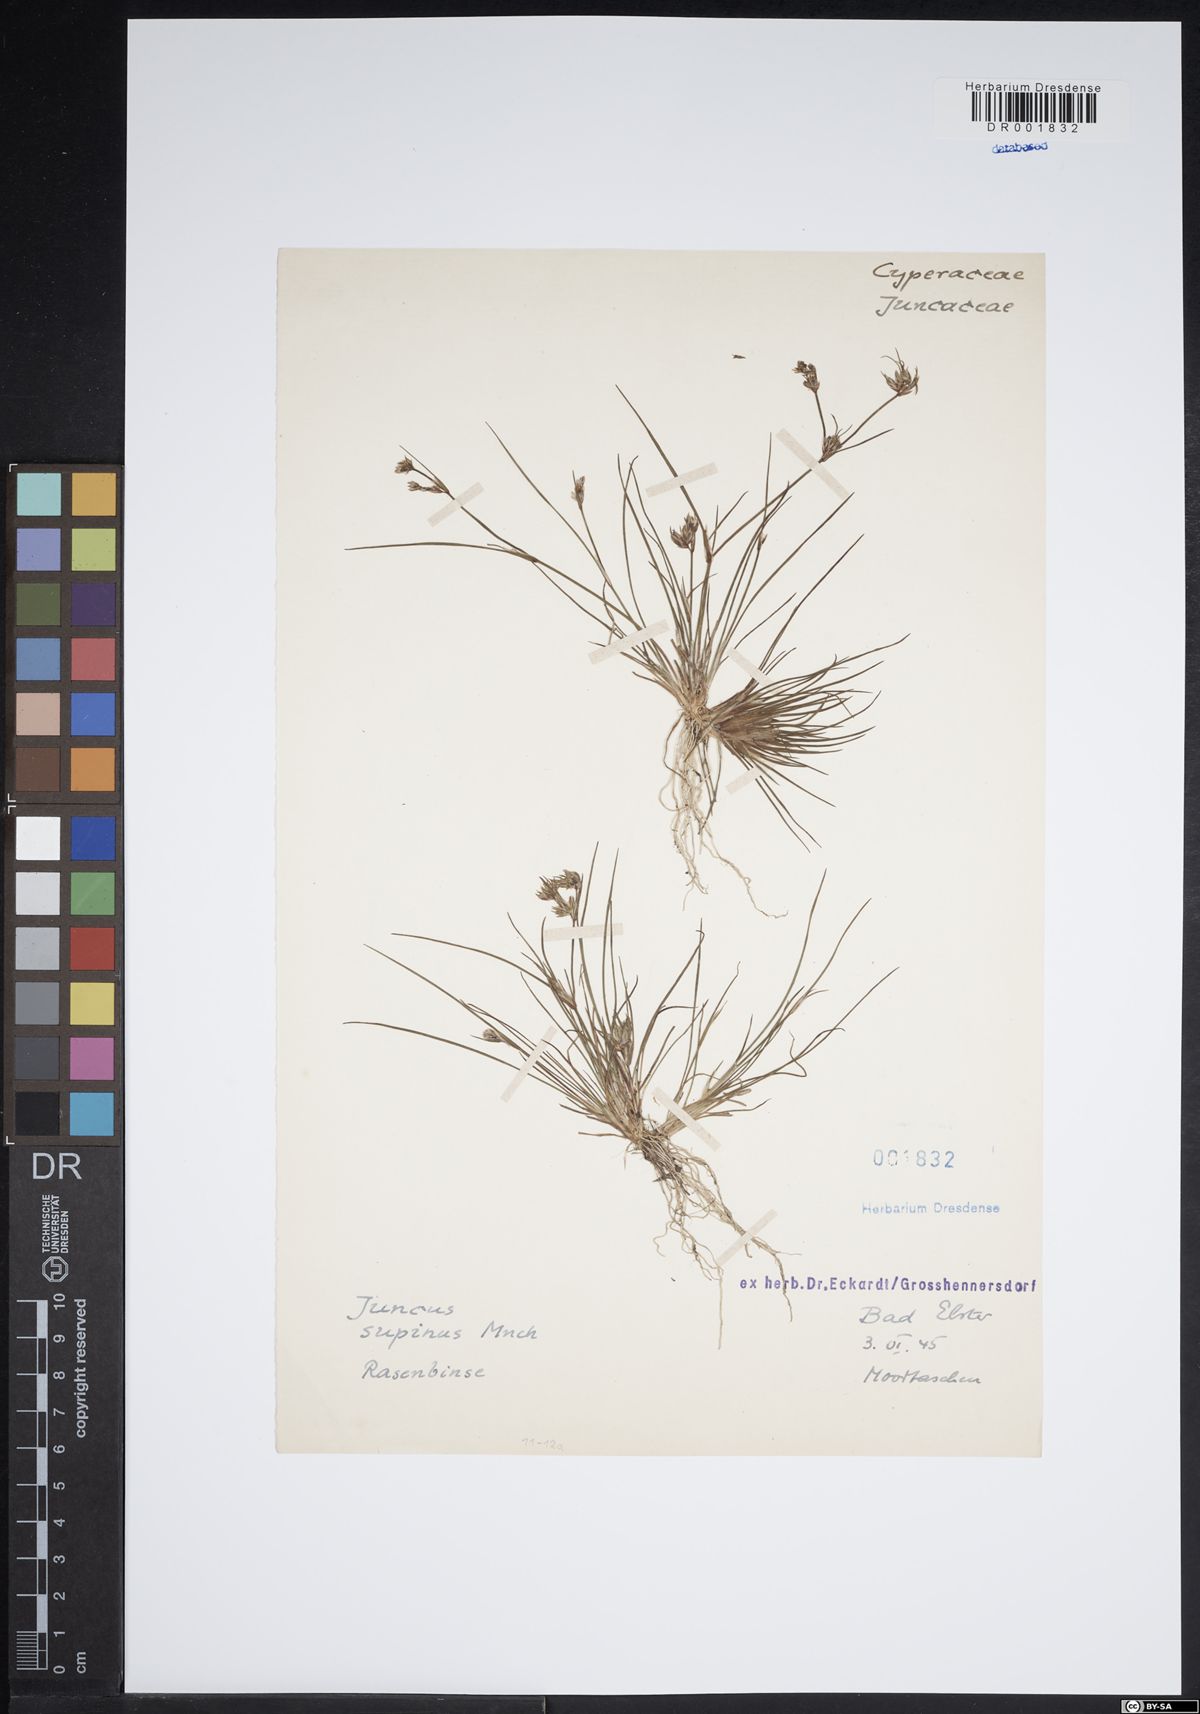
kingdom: Plantae
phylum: Tracheophyta
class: Liliopsida
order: Poales
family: Juncaceae
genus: Juncus
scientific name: Juncus bulbosus
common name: Bulbous rush
